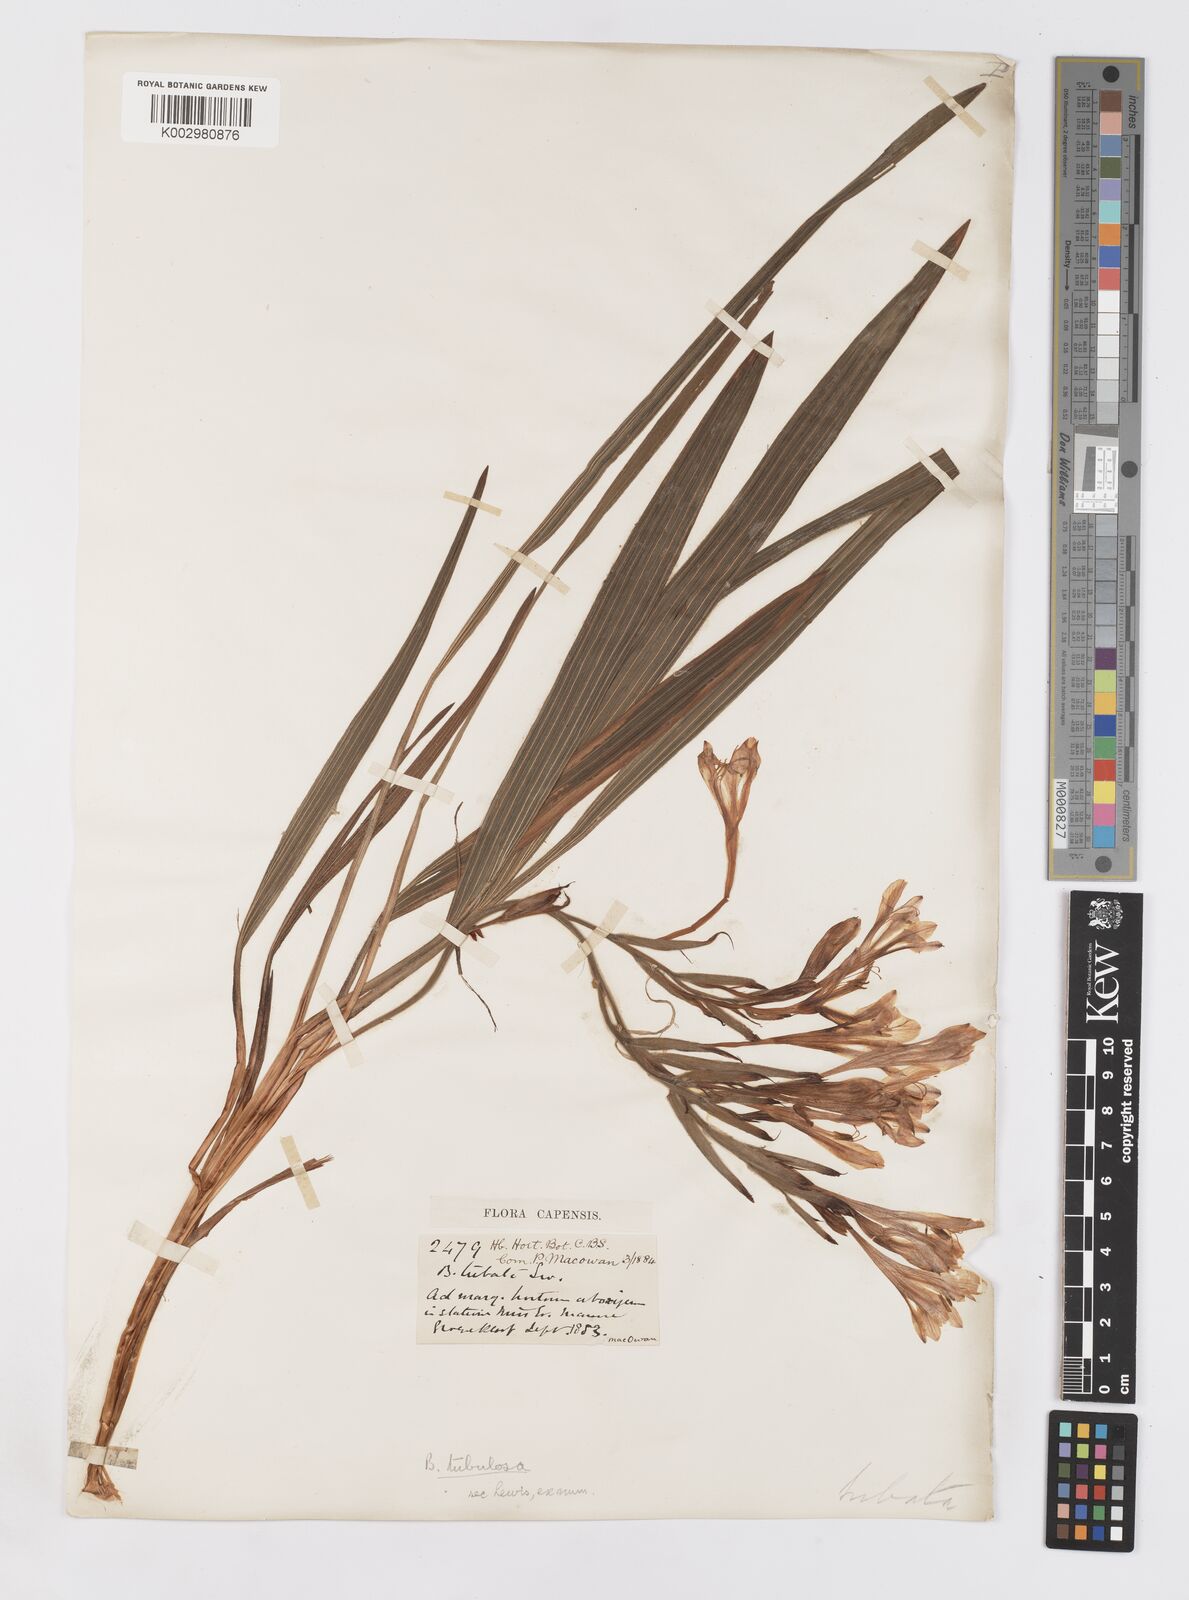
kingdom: Plantae
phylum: Tracheophyta
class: Liliopsida
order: Asparagales
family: Iridaceae
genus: Babiana
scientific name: Babiana tubulosa
